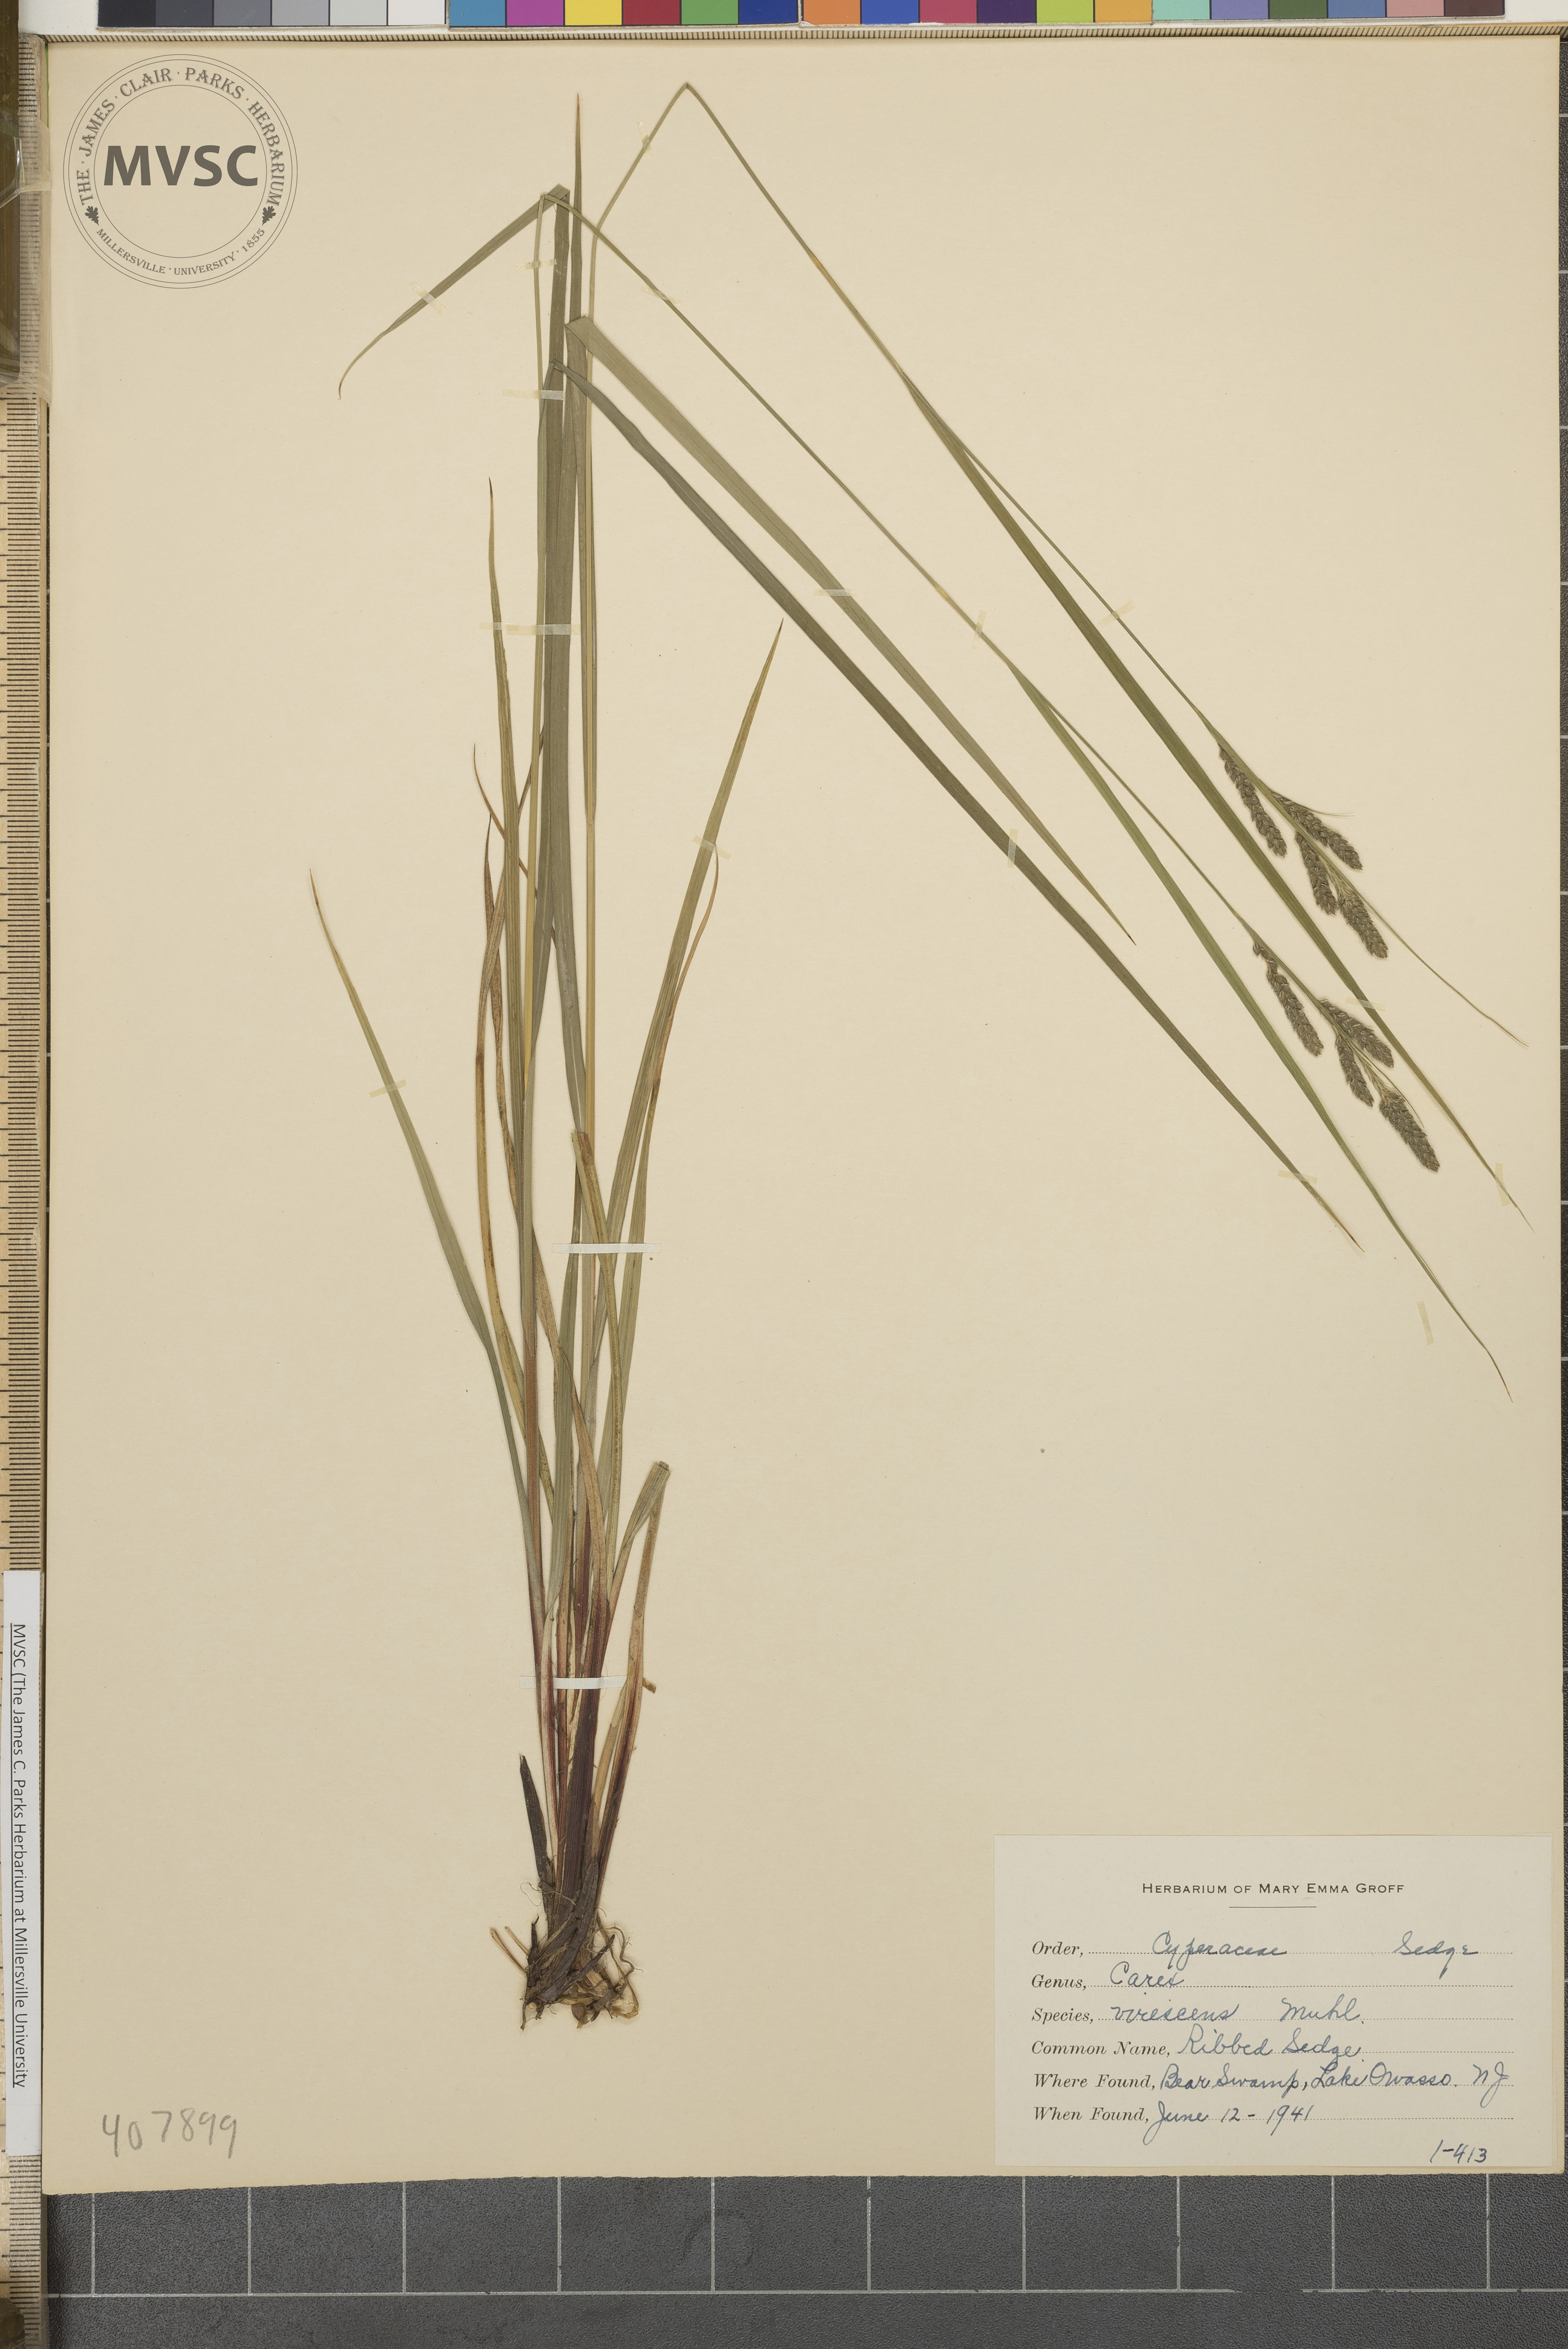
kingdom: Plantae
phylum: Tracheophyta
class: Liliopsida
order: Poales
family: Cyperaceae
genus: Carex
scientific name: Carex virescens
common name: Ribbed Sedge
